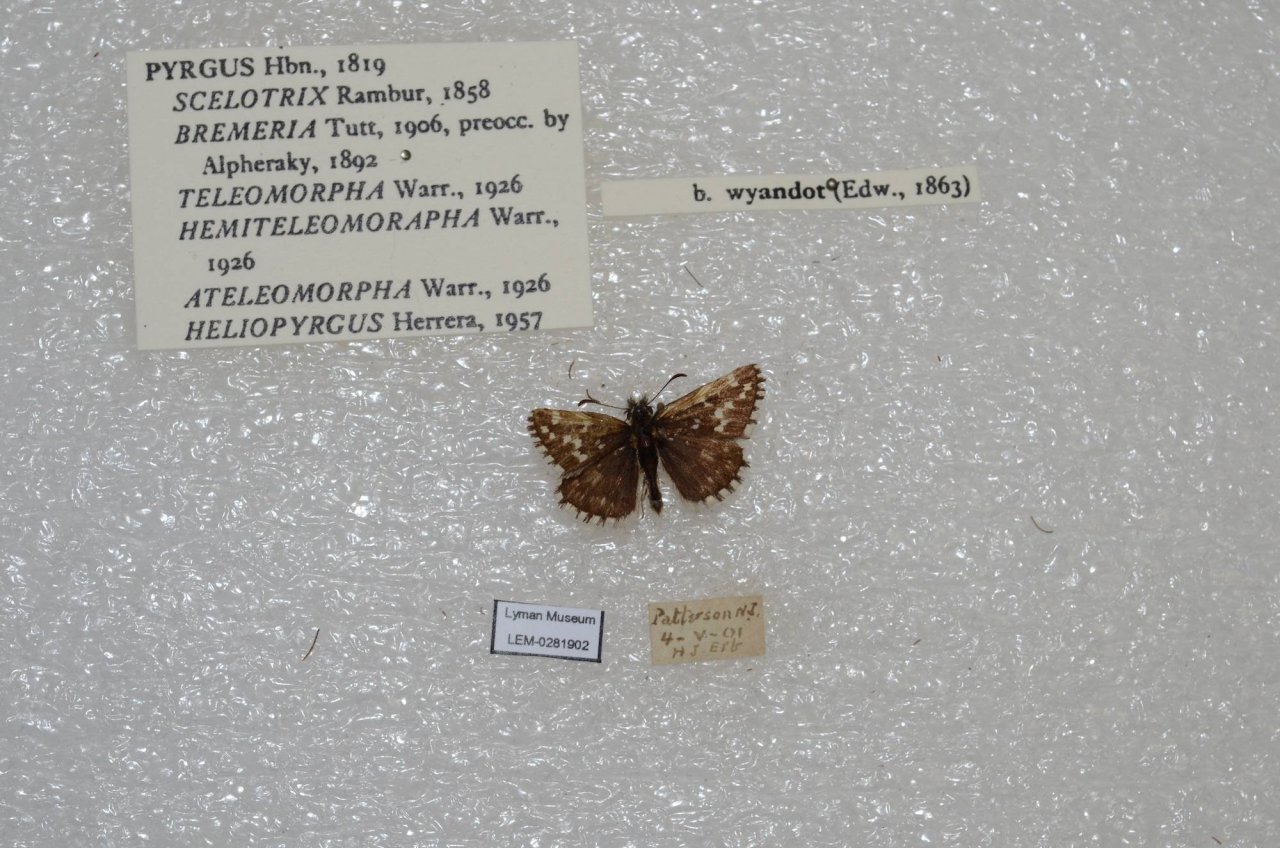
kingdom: Animalia
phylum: Arthropoda
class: Insecta
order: Lepidoptera
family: Hesperiidae
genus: Anisochoria
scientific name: Anisochoria pedaliodina
